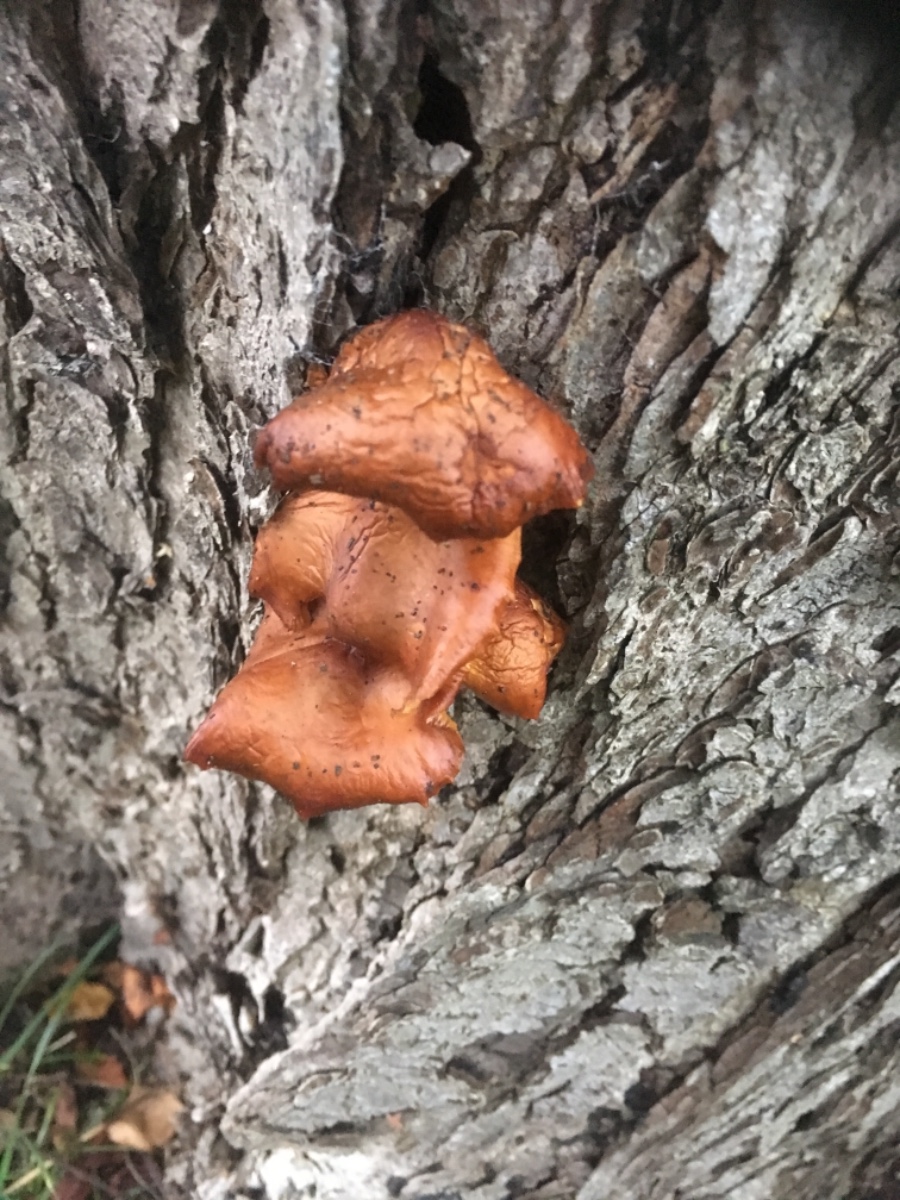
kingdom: Fungi
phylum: Basidiomycota
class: Agaricomycetes
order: Agaricales
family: Physalacriaceae
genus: Flammulina
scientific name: Flammulina velutipes
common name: gul fløjlsfod
